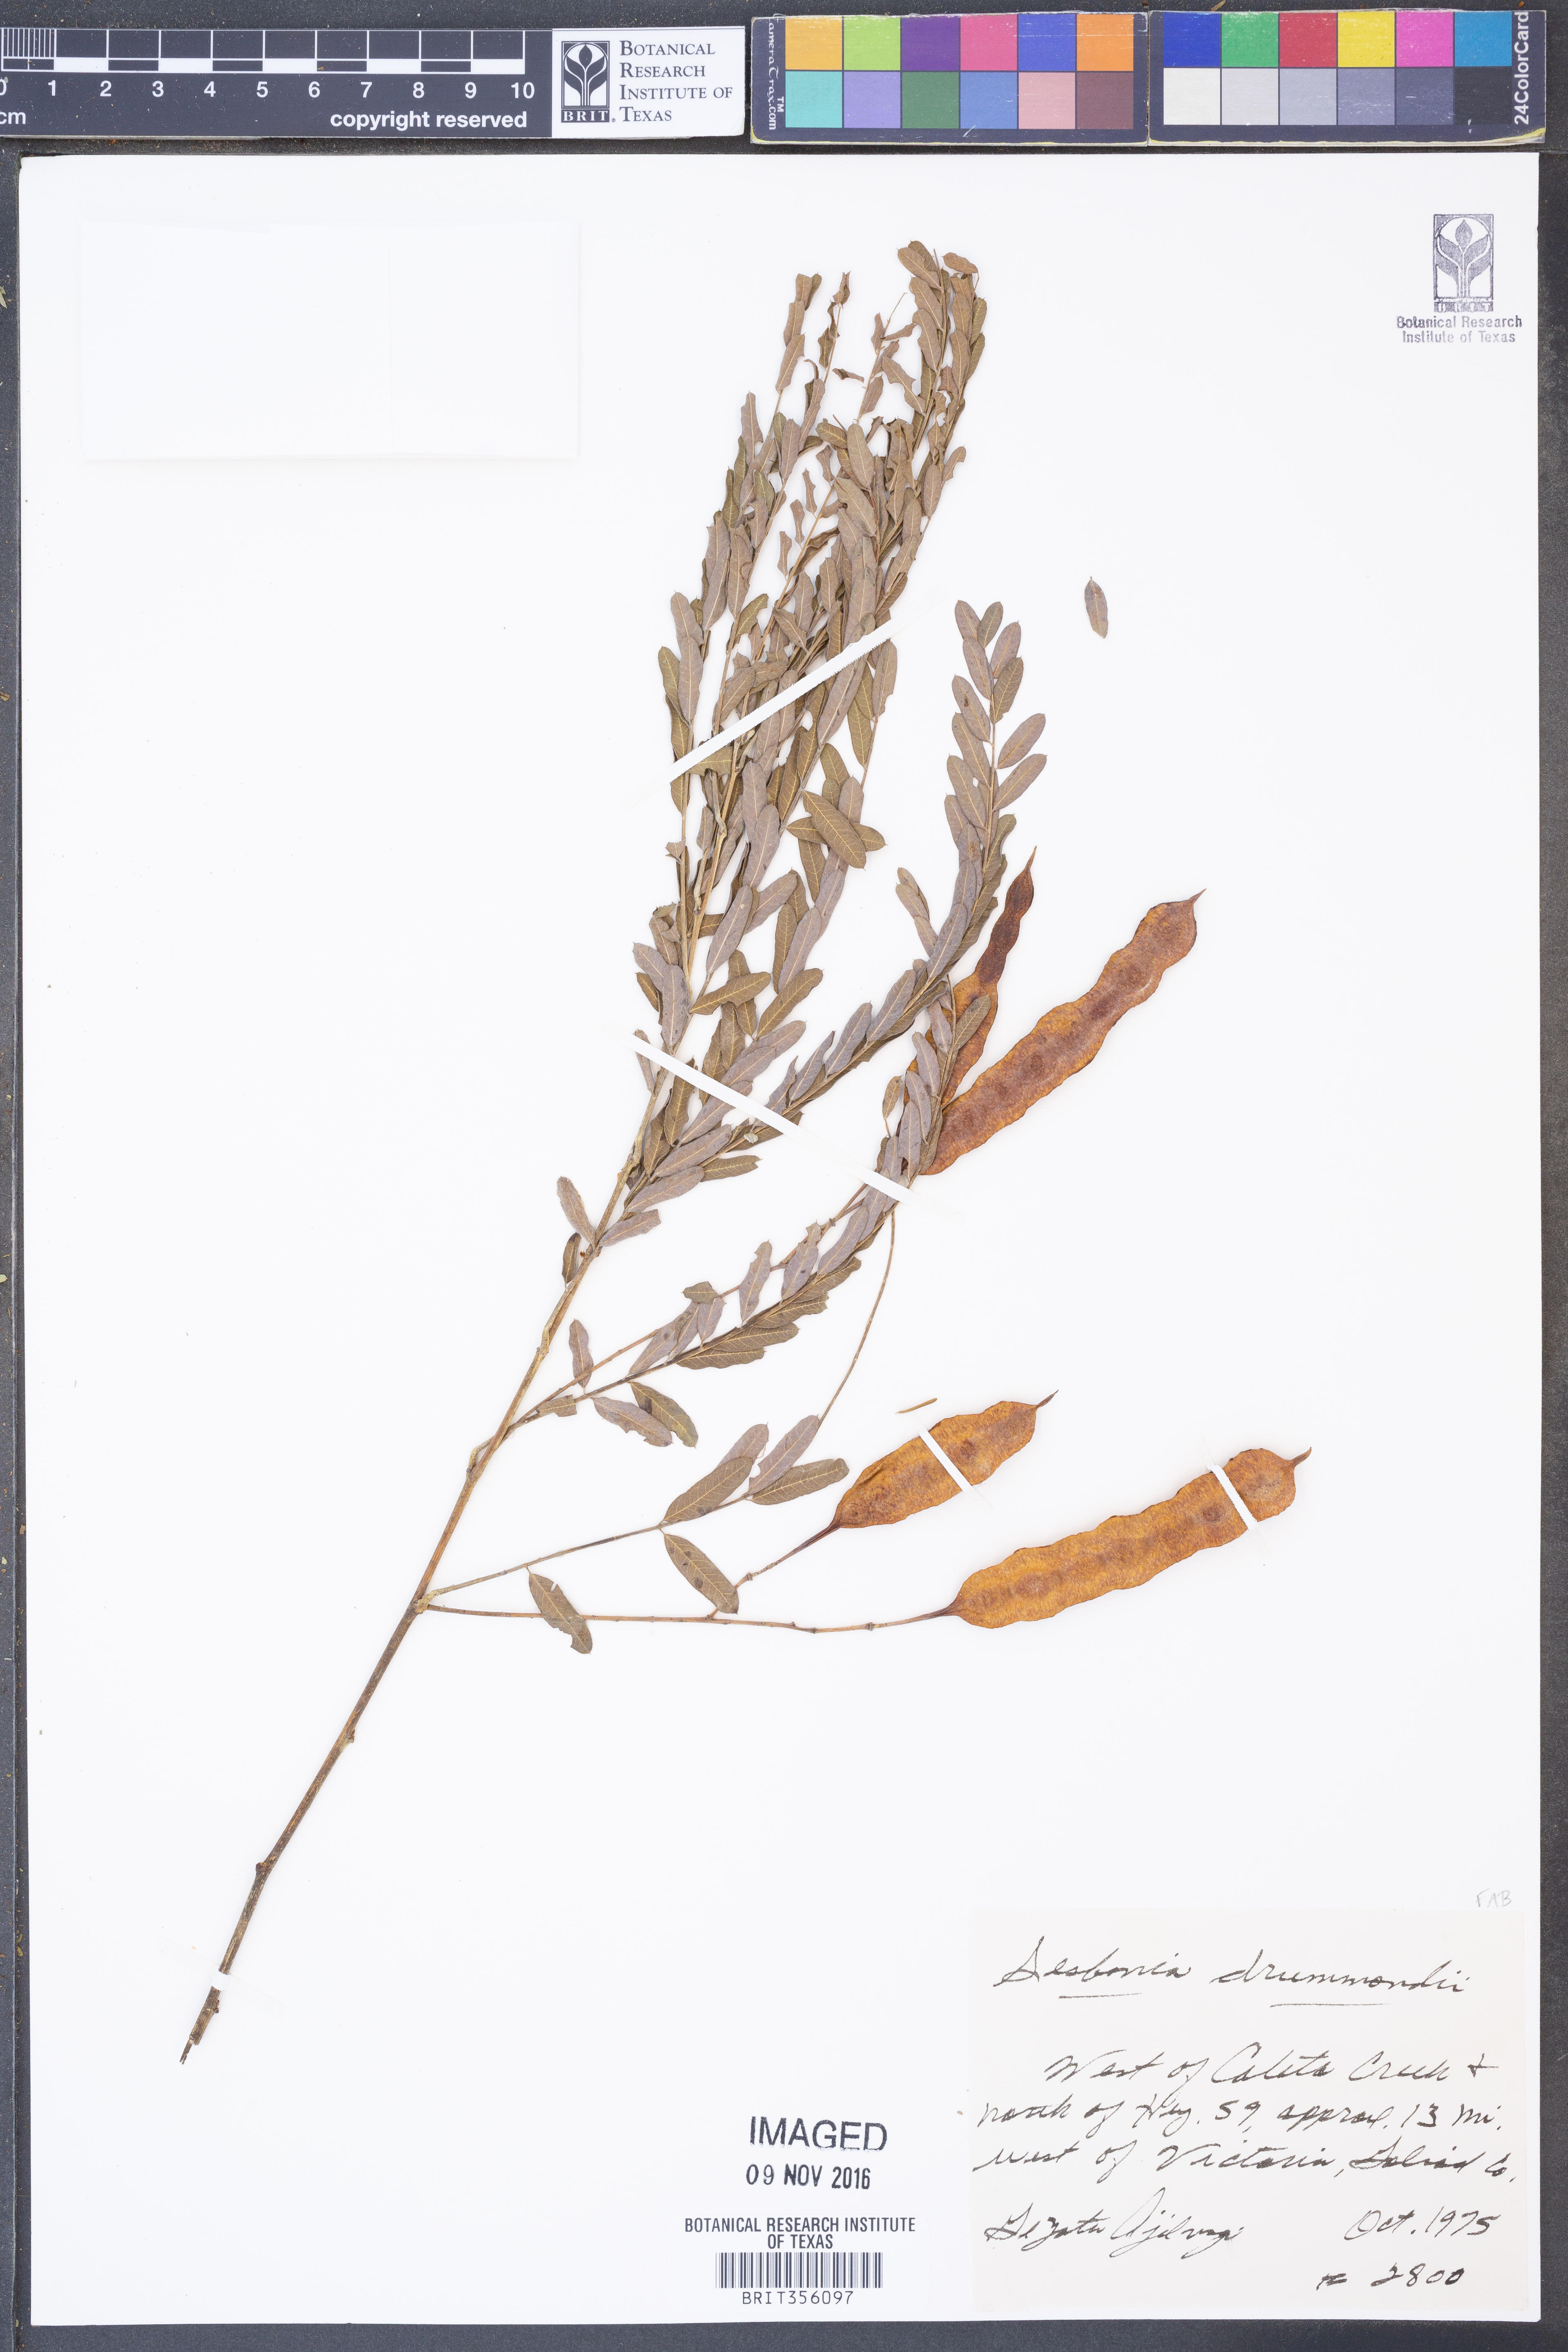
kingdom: Plantae
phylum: Tracheophyta
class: Magnoliopsida
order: Fabales
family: Fabaceae
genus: Sesbania
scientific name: Sesbania drummondii
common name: Poison-bean
